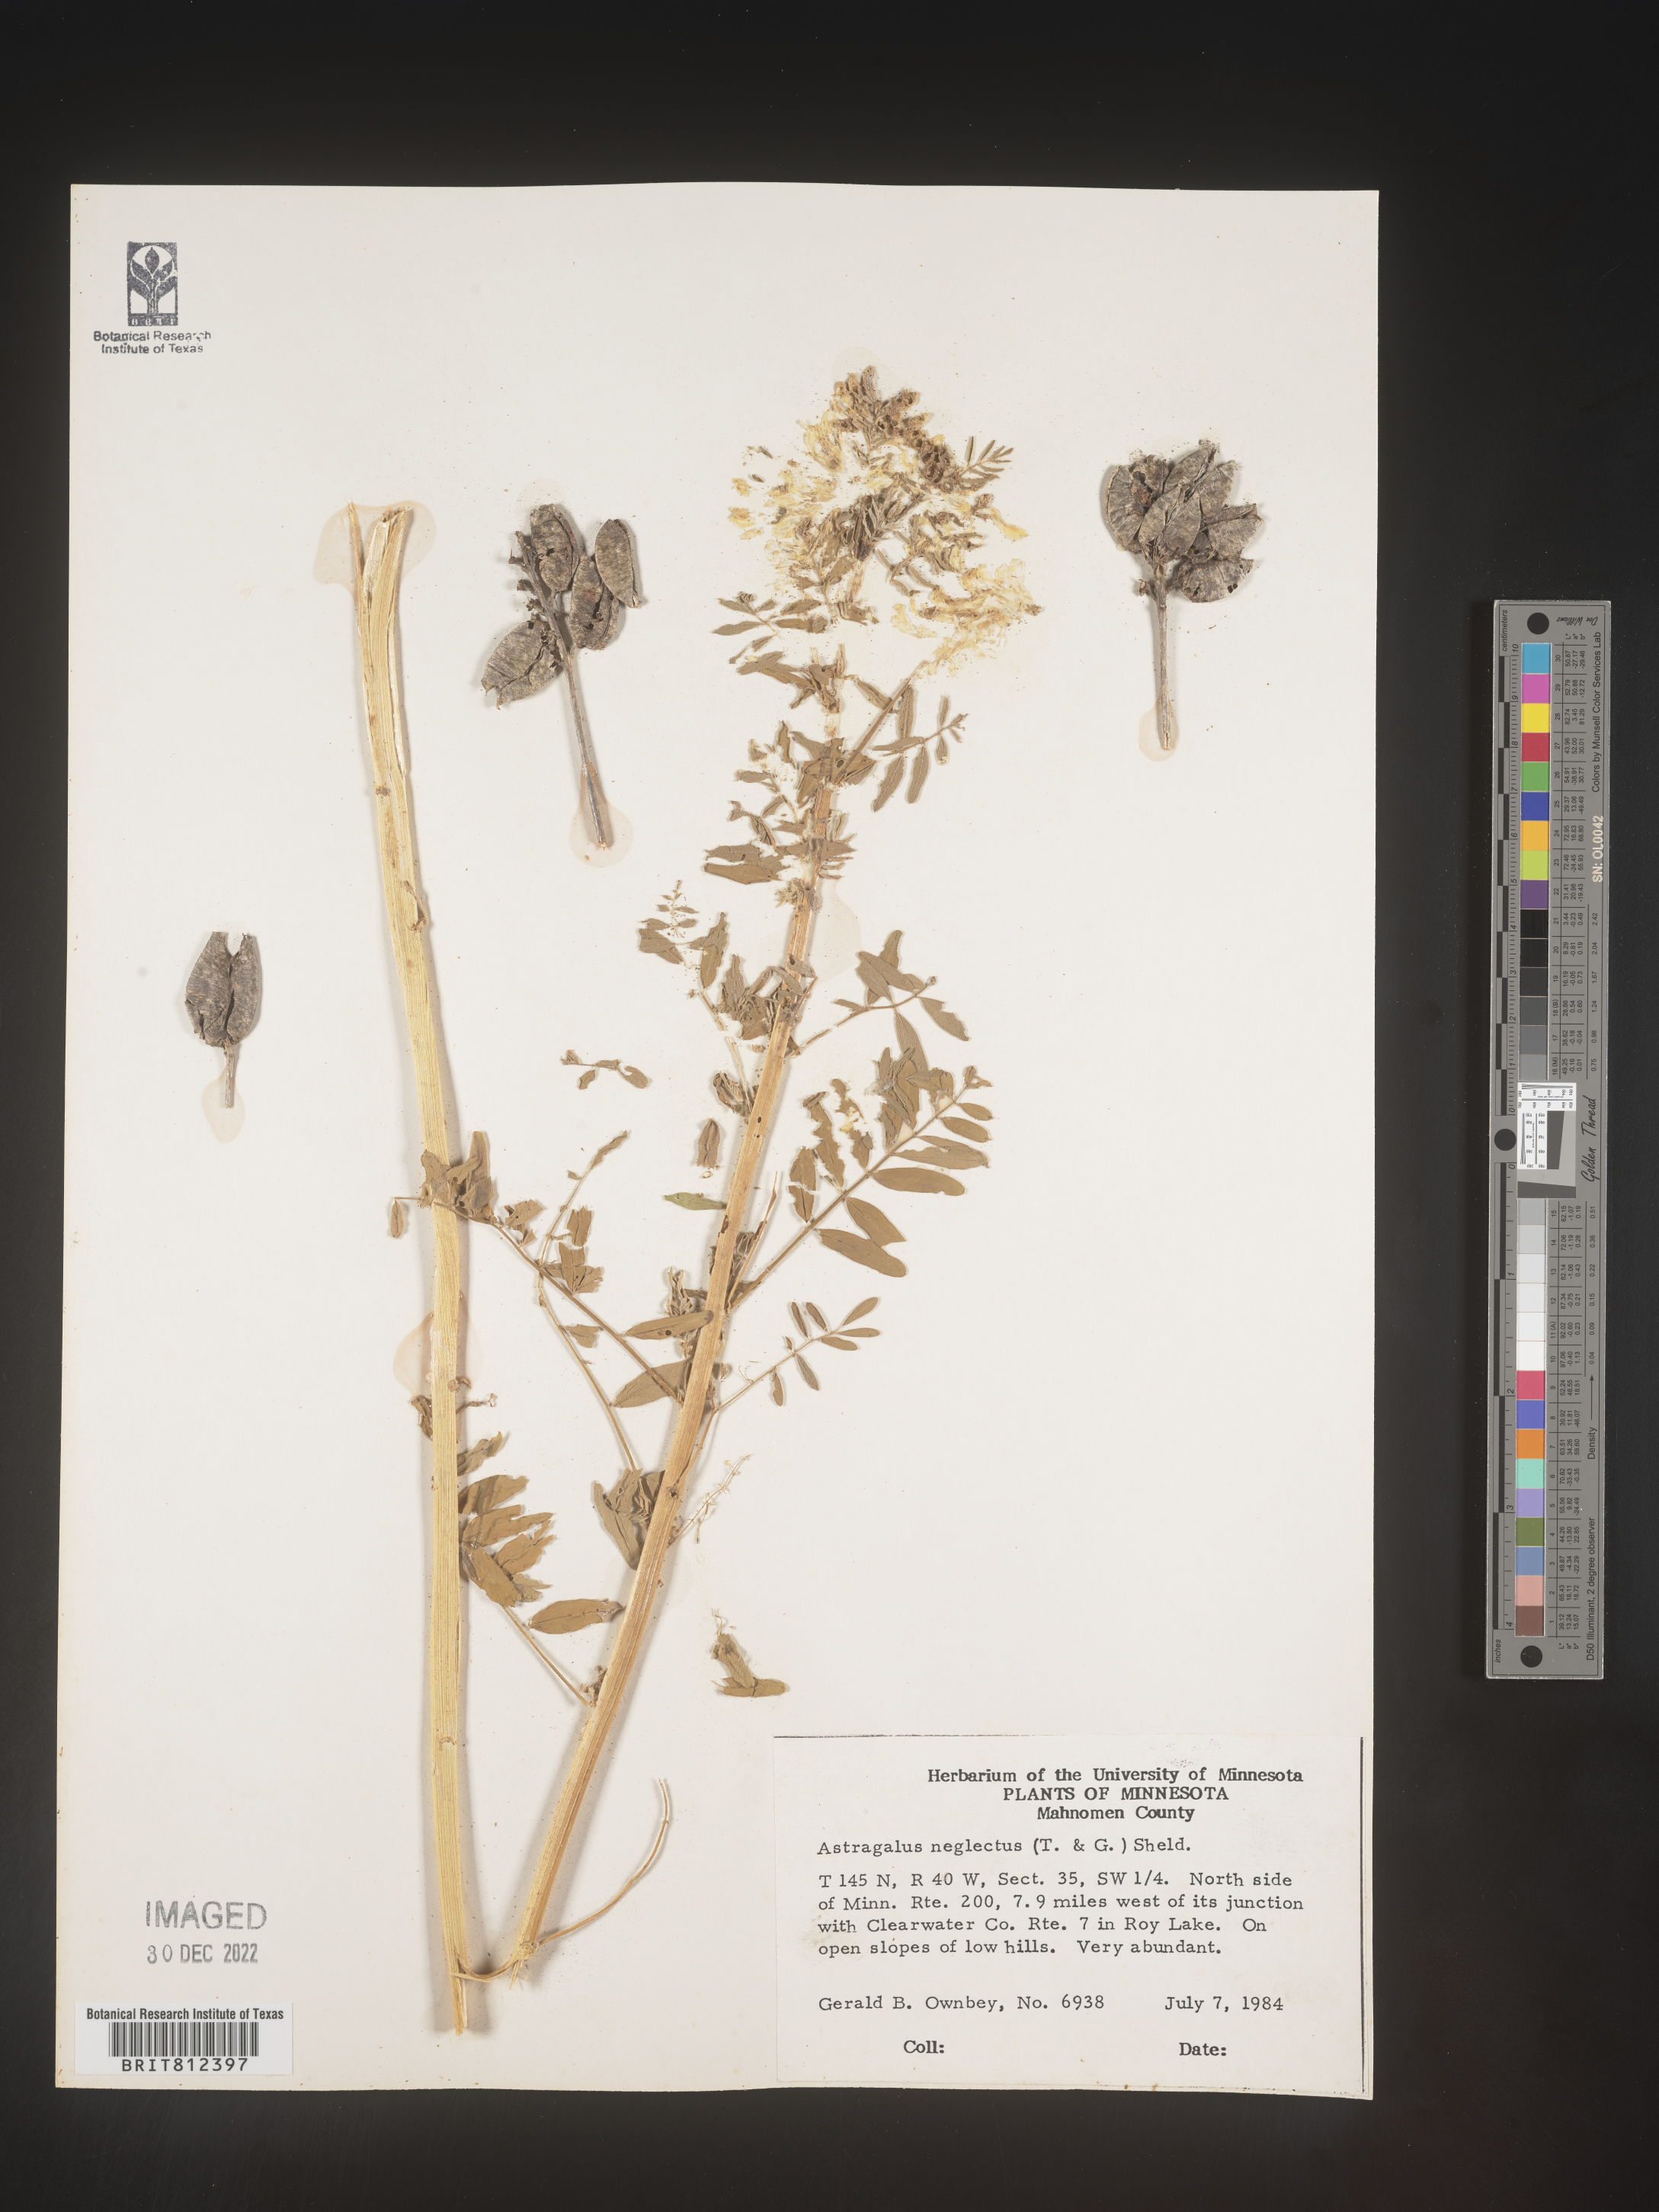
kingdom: Plantae
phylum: Tracheophyta
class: Magnoliopsida
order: Fabales
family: Fabaceae
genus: Astragalus
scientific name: Astragalus
